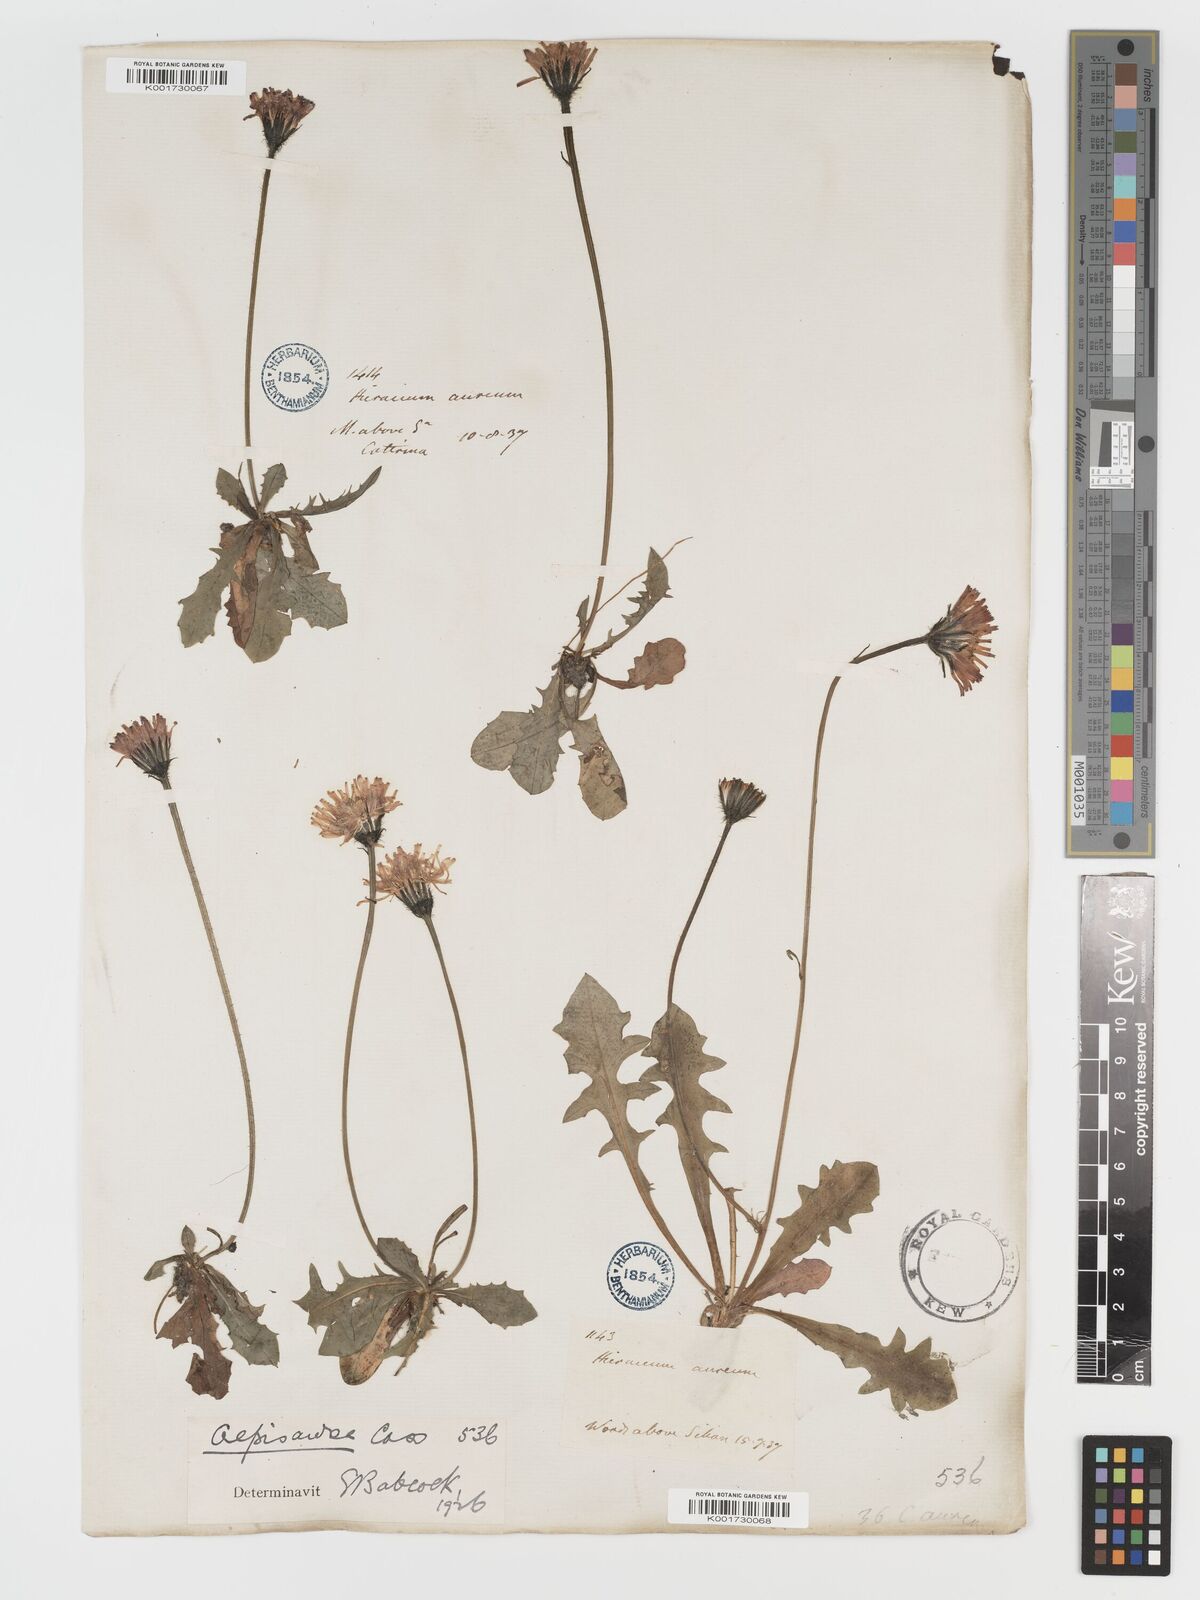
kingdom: Plantae
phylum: Tracheophyta
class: Magnoliopsida
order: Asterales
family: Asteraceae
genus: Crepis
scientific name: Crepis aurea
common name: Golden hawk's-beard
